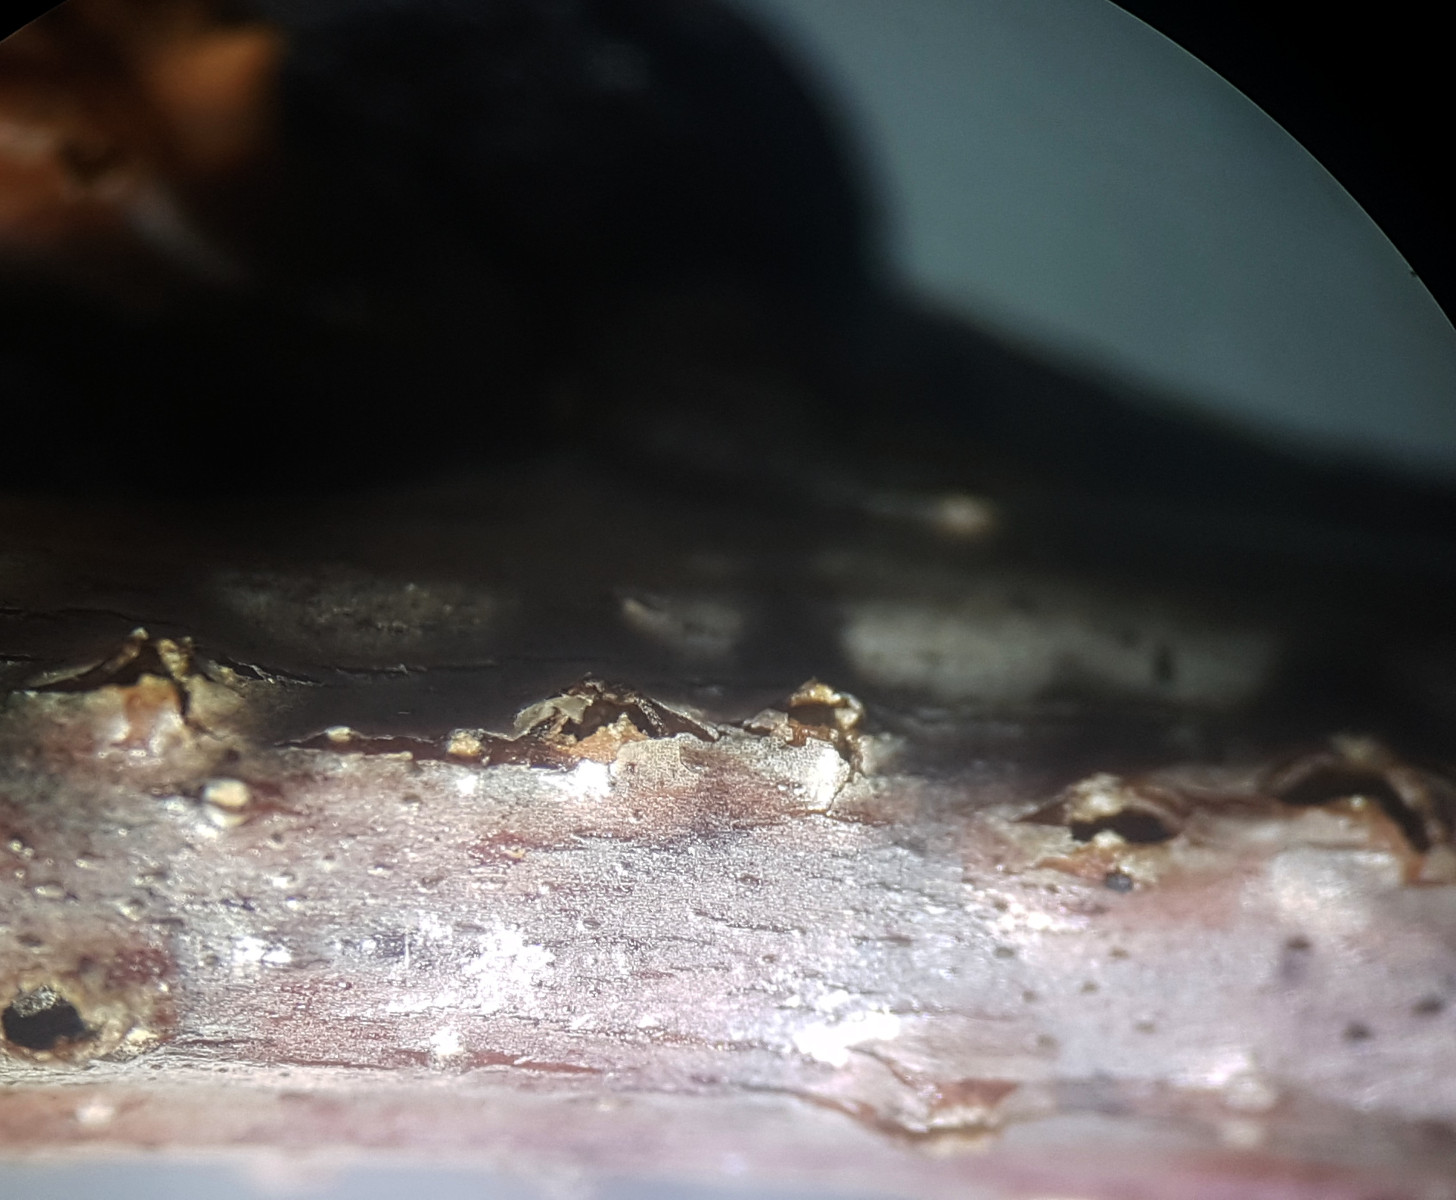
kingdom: Fungi
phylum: Ascomycota
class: Sordariomycetes
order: Diaporthales
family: Erythrogloeaceae
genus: Dendrostoma
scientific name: Dendrostoma leiphaemia
